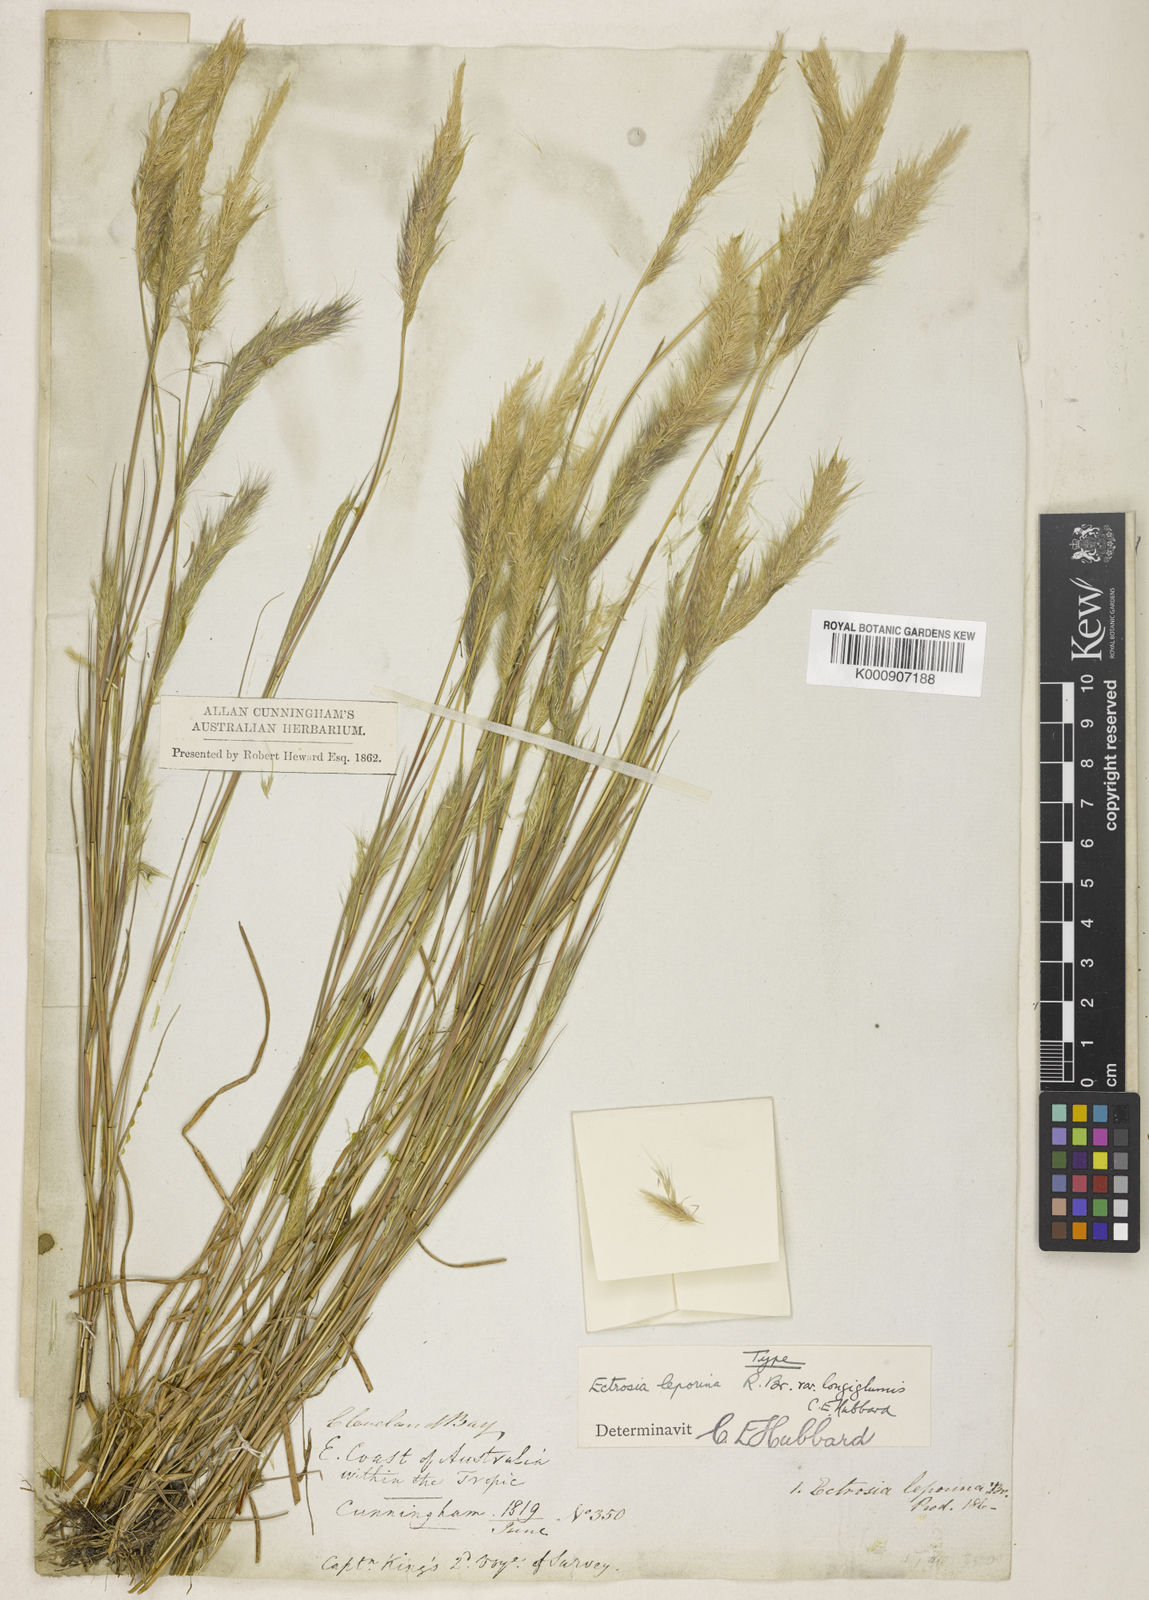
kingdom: Plantae
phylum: Tracheophyta
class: Liliopsida
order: Poales
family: Poaceae
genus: Eragrostis
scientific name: Eragrostis leporina
